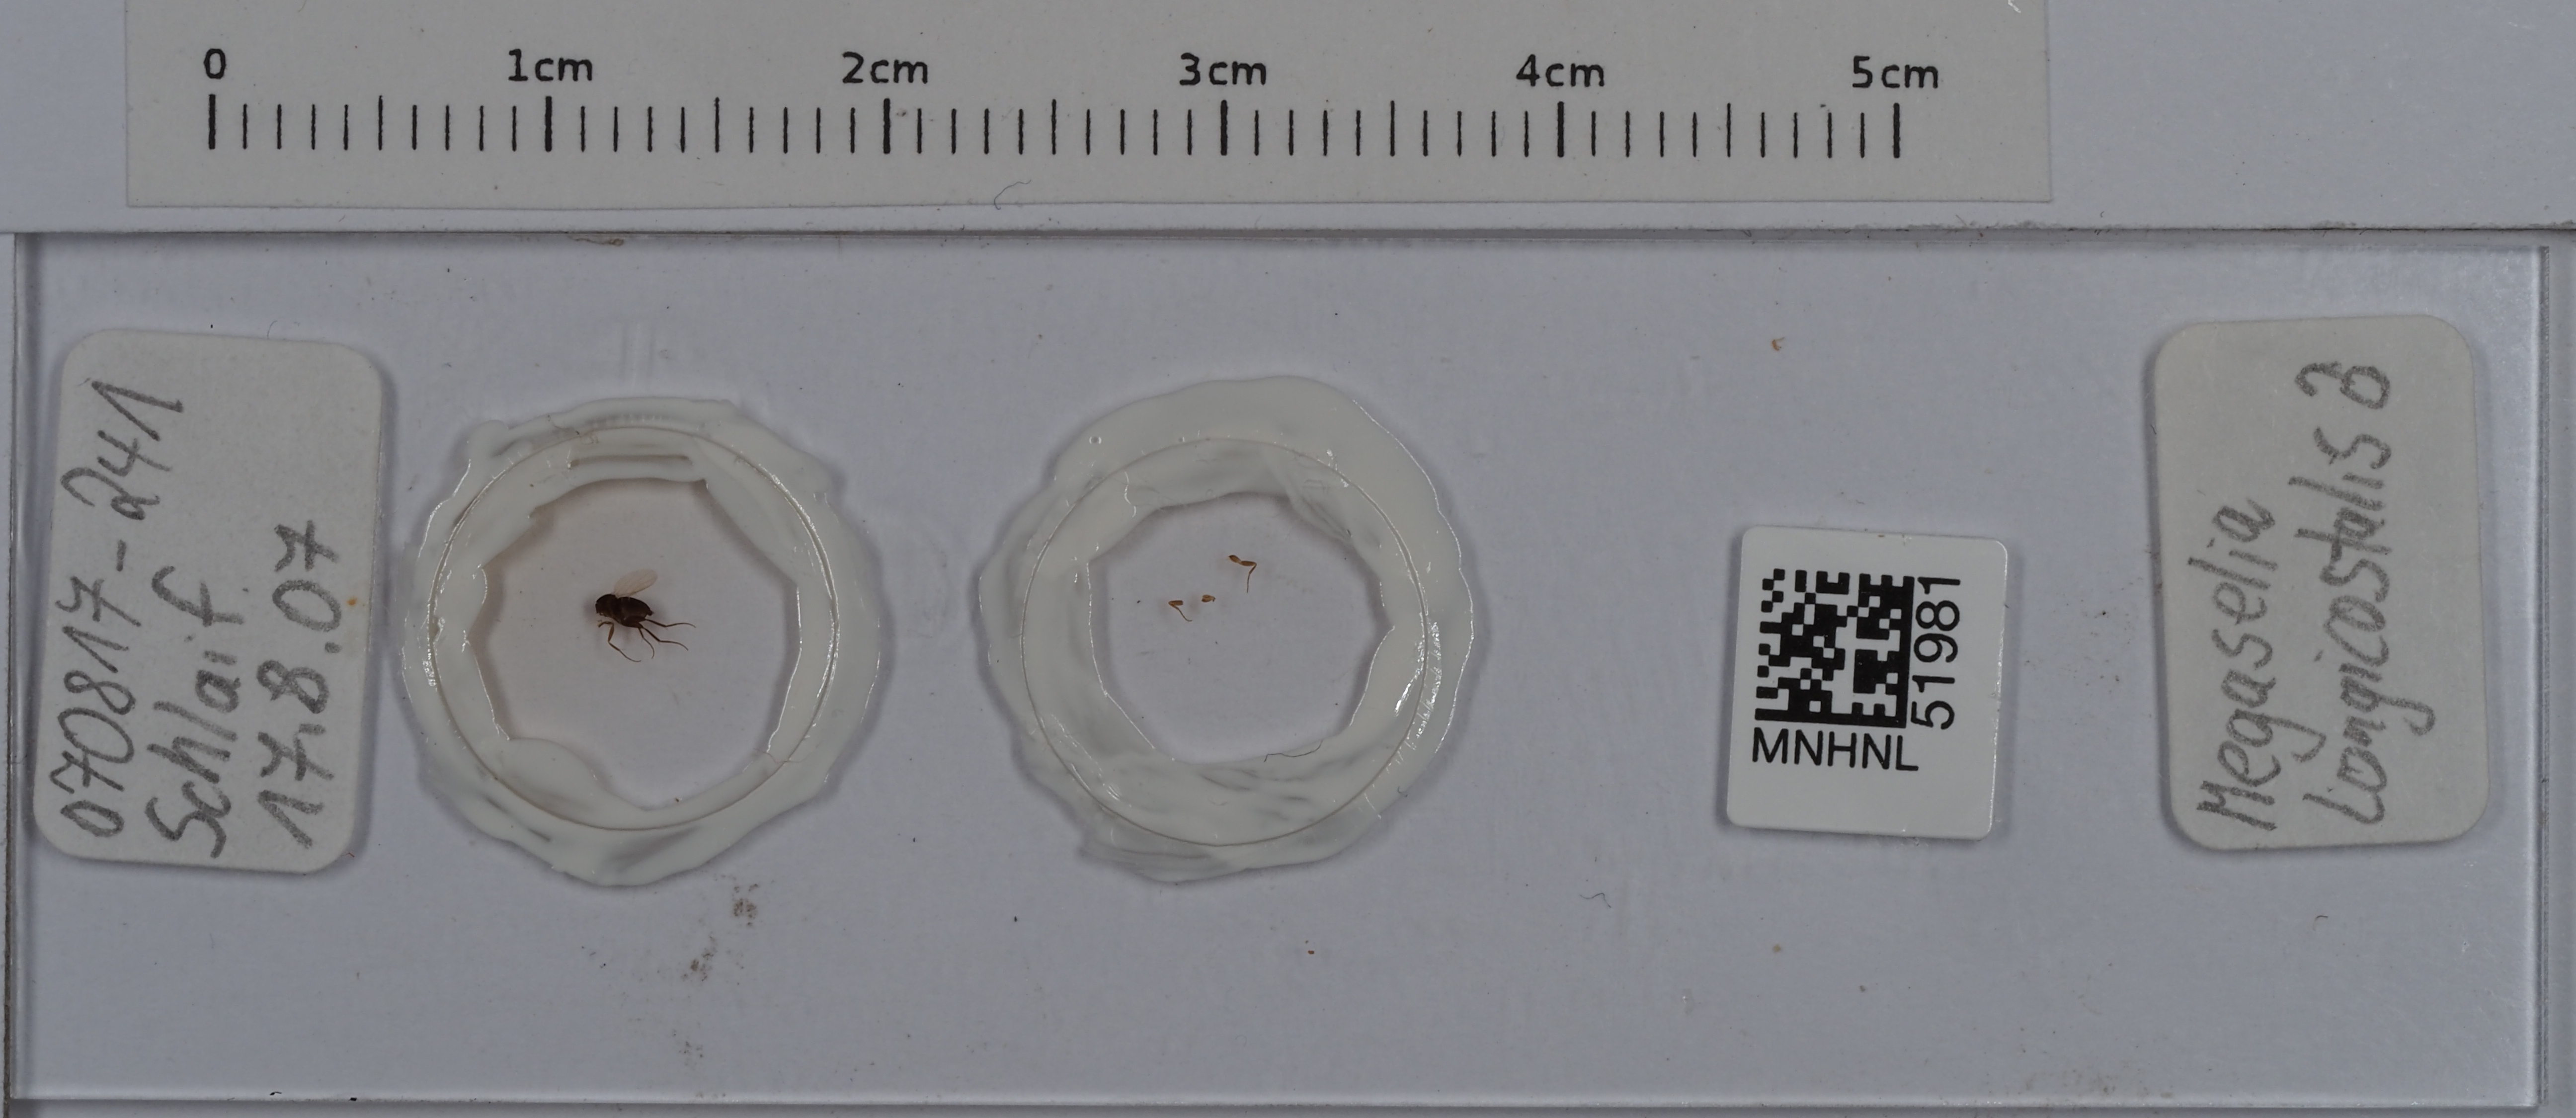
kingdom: Animalia
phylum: Arthropoda
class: Insecta
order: Diptera
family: Phoridae
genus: Megaselia
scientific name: Megaselia longicostalis
